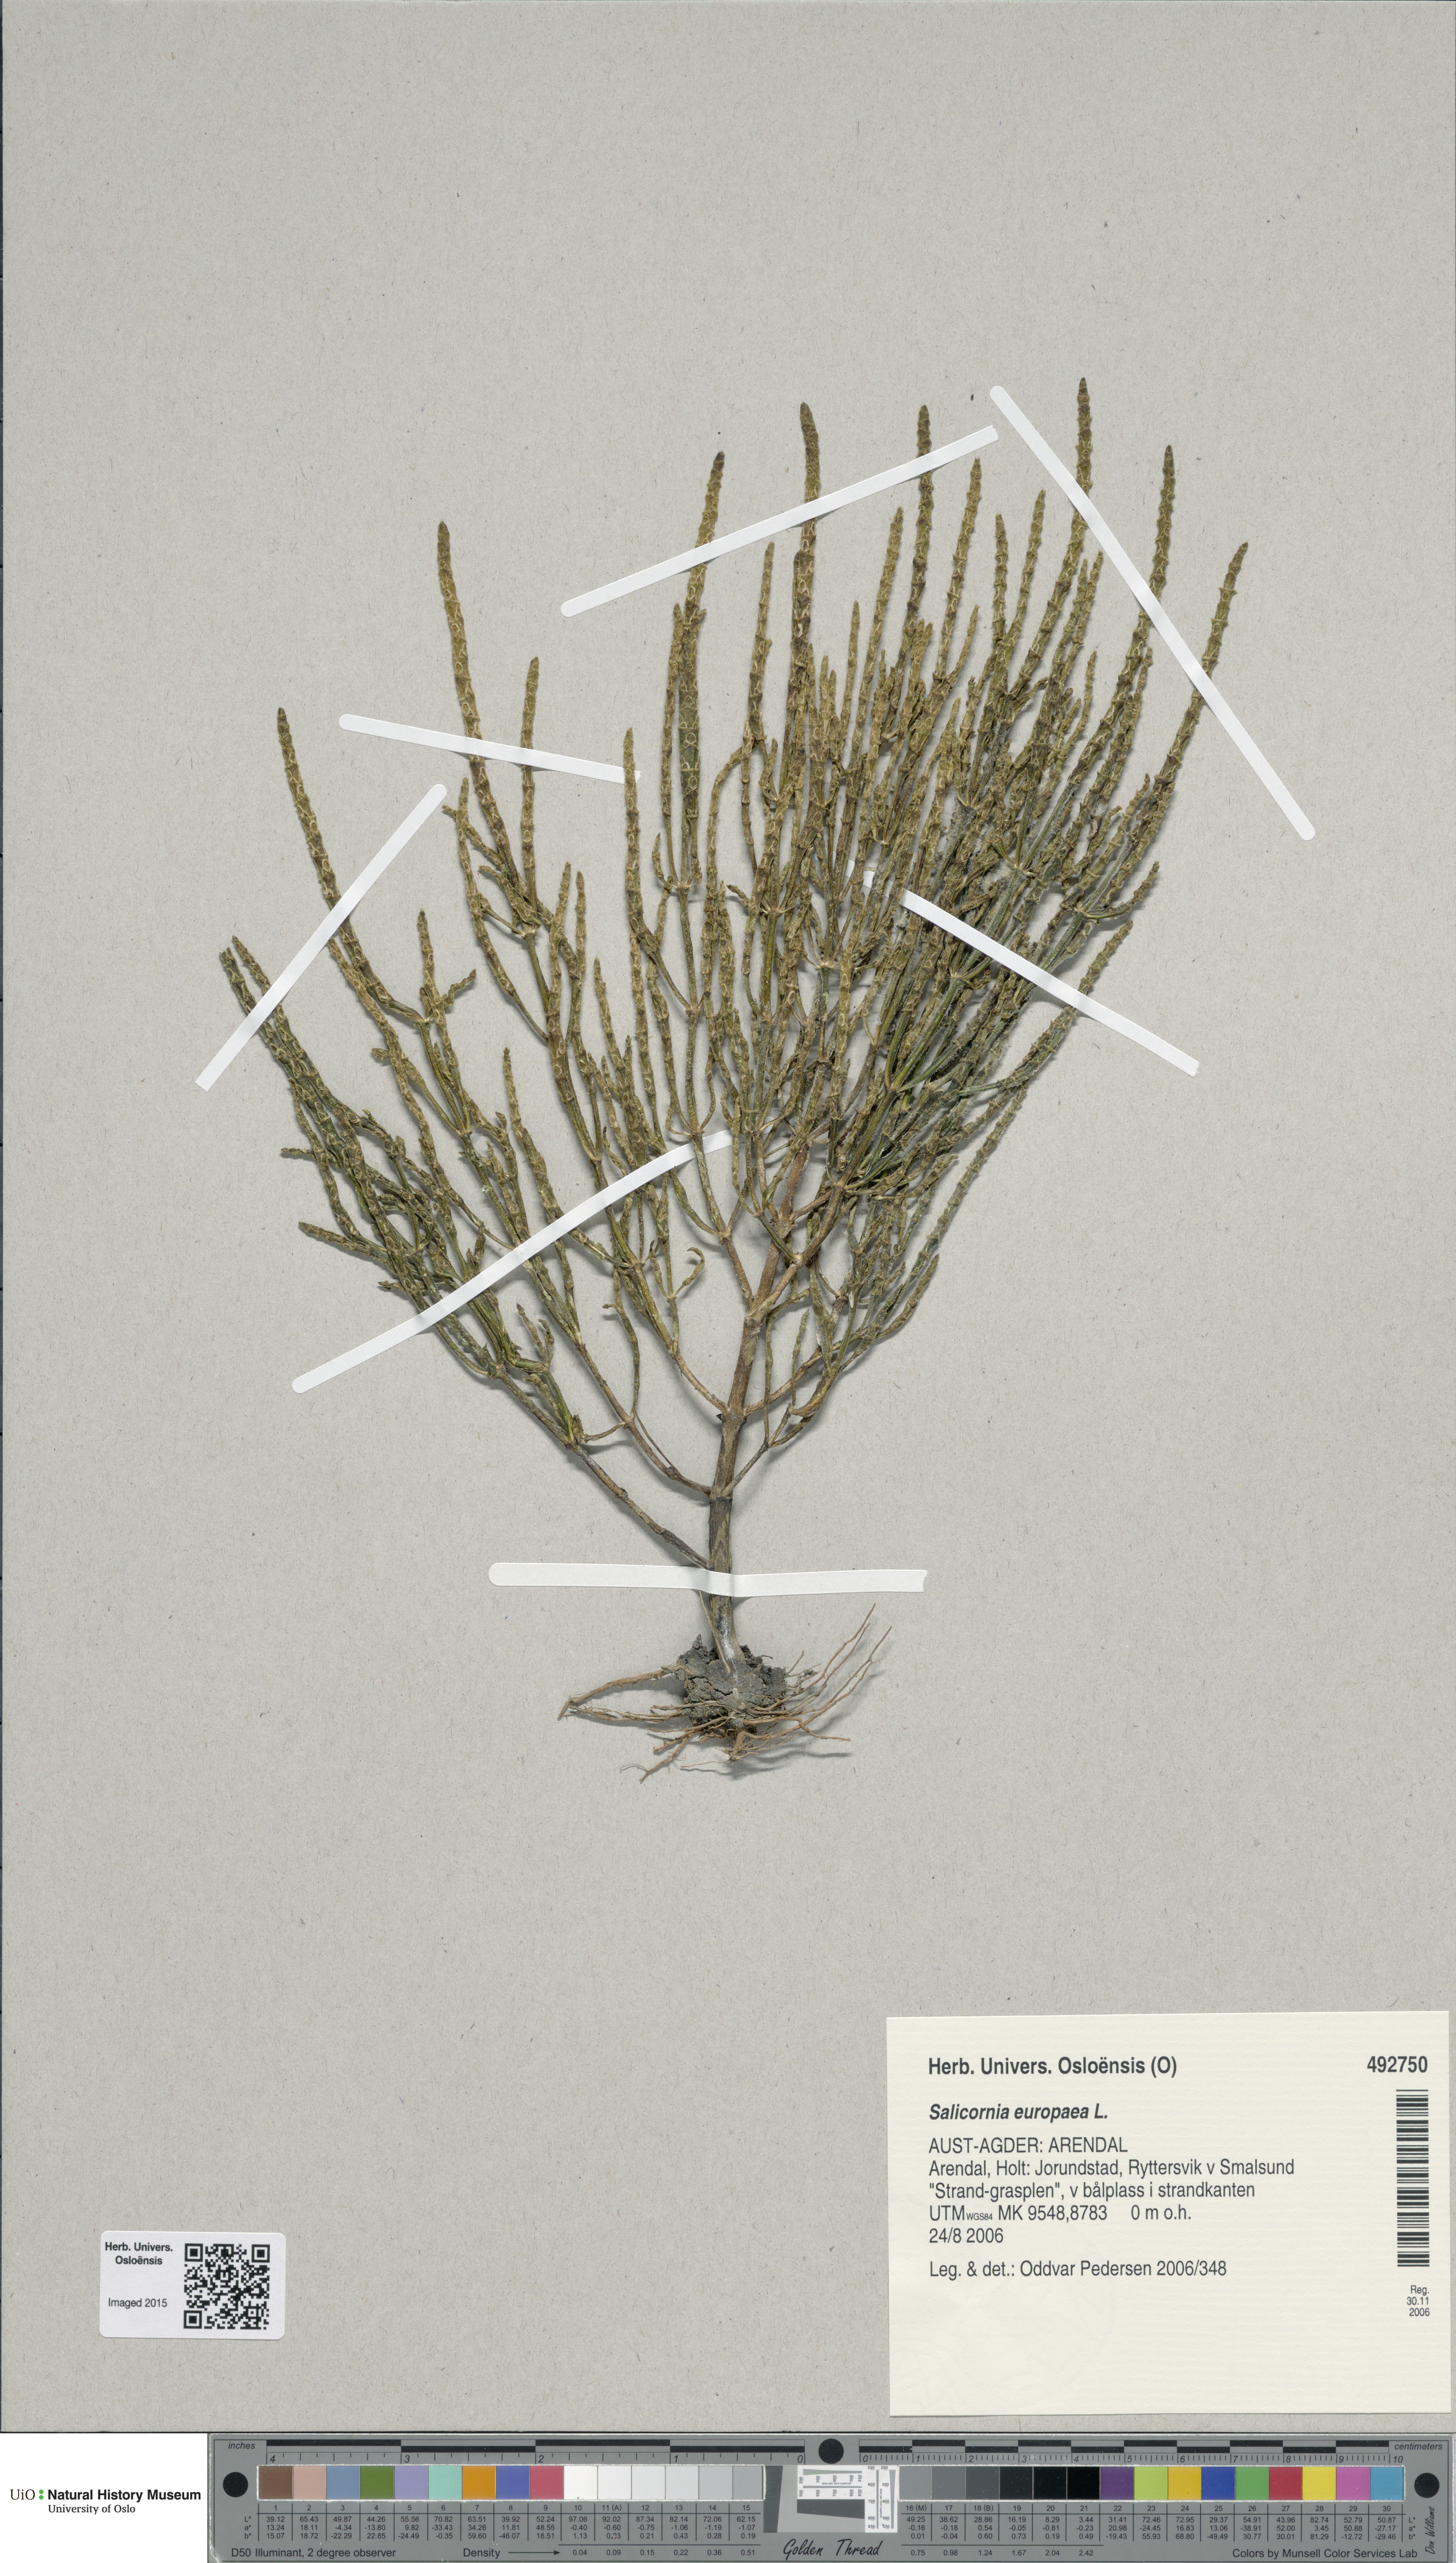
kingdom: Plantae
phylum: Tracheophyta
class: Magnoliopsida
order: Caryophyllales
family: Amaranthaceae
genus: Salicornia
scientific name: Salicornia europaea
